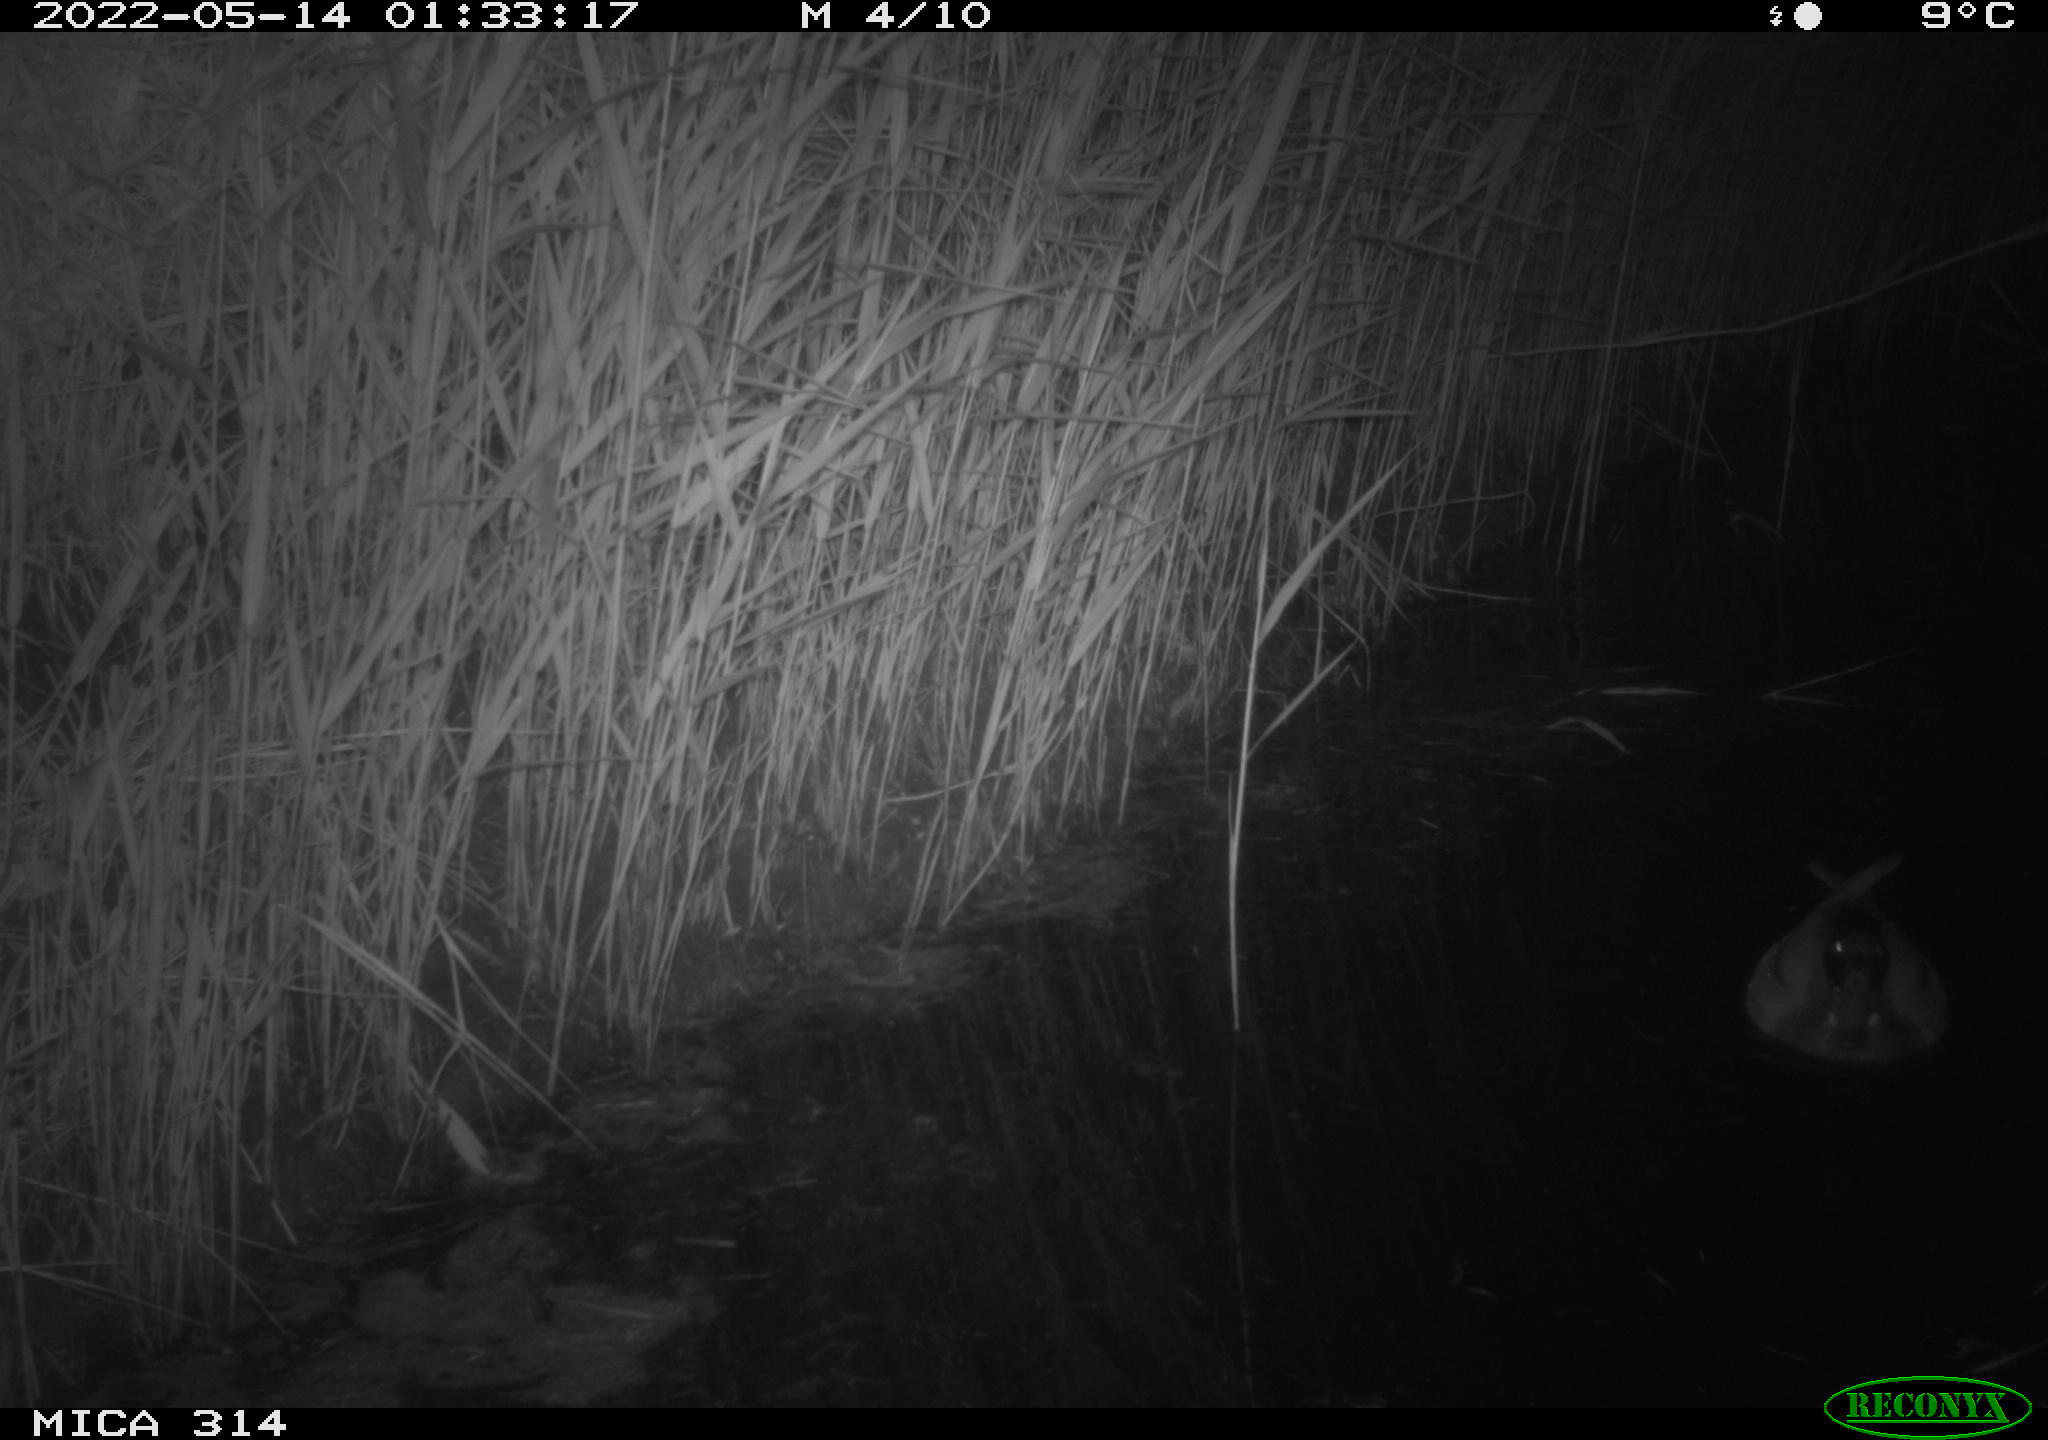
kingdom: Animalia
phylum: Chordata
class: Aves
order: Anseriformes
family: Anatidae
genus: Anas
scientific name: Anas platyrhynchos
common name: Mallard
